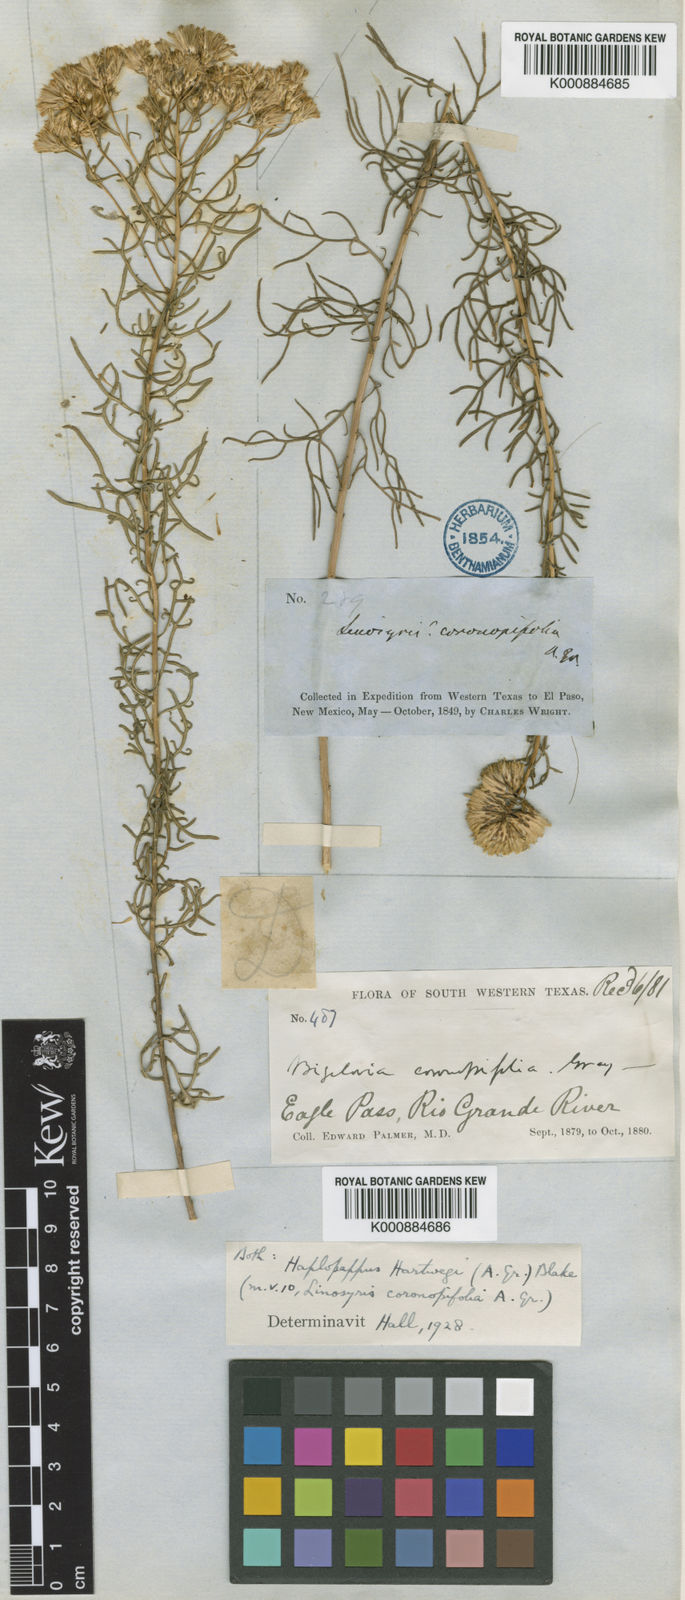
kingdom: Plantae
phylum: Tracheophyta
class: Magnoliopsida
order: Asterales
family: Asteraceae
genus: Isocoma
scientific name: Isocoma hartwegii
